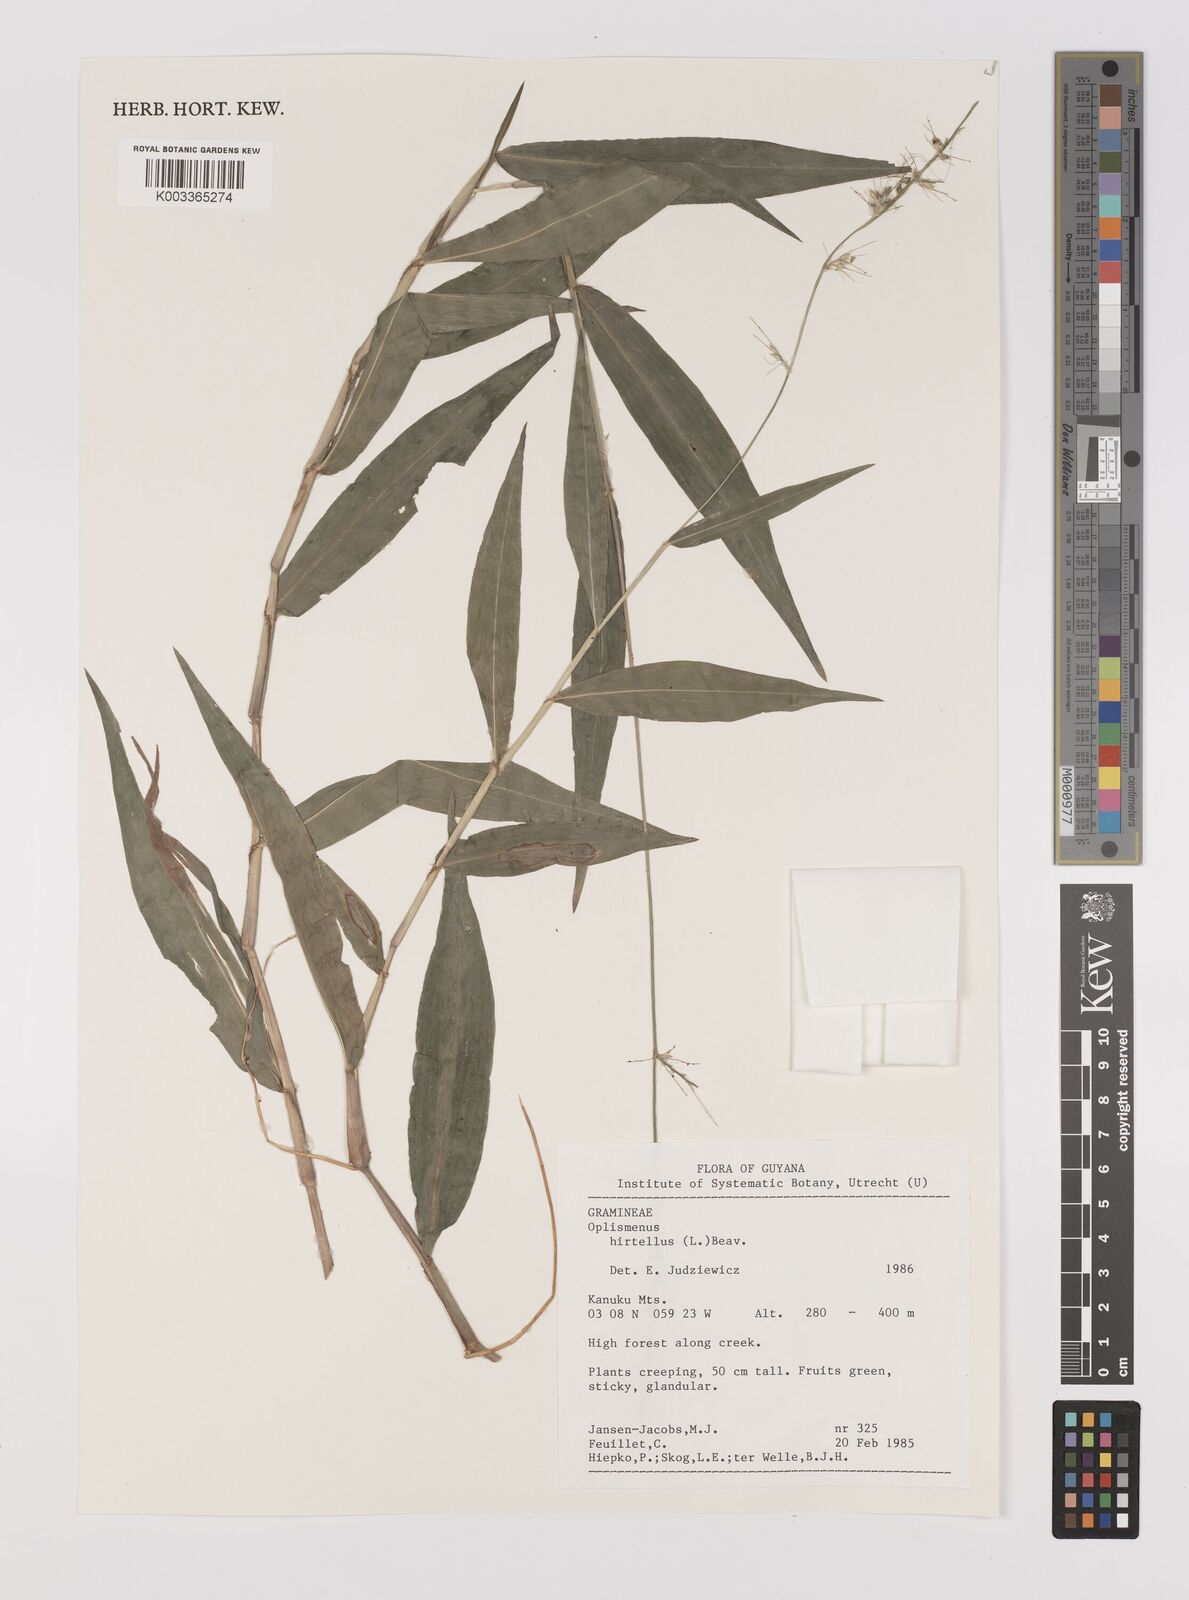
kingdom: Plantae
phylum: Tracheophyta
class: Liliopsida
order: Poales
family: Poaceae
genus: Oplismenus
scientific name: Oplismenus hirtellus
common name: Basketgrass
